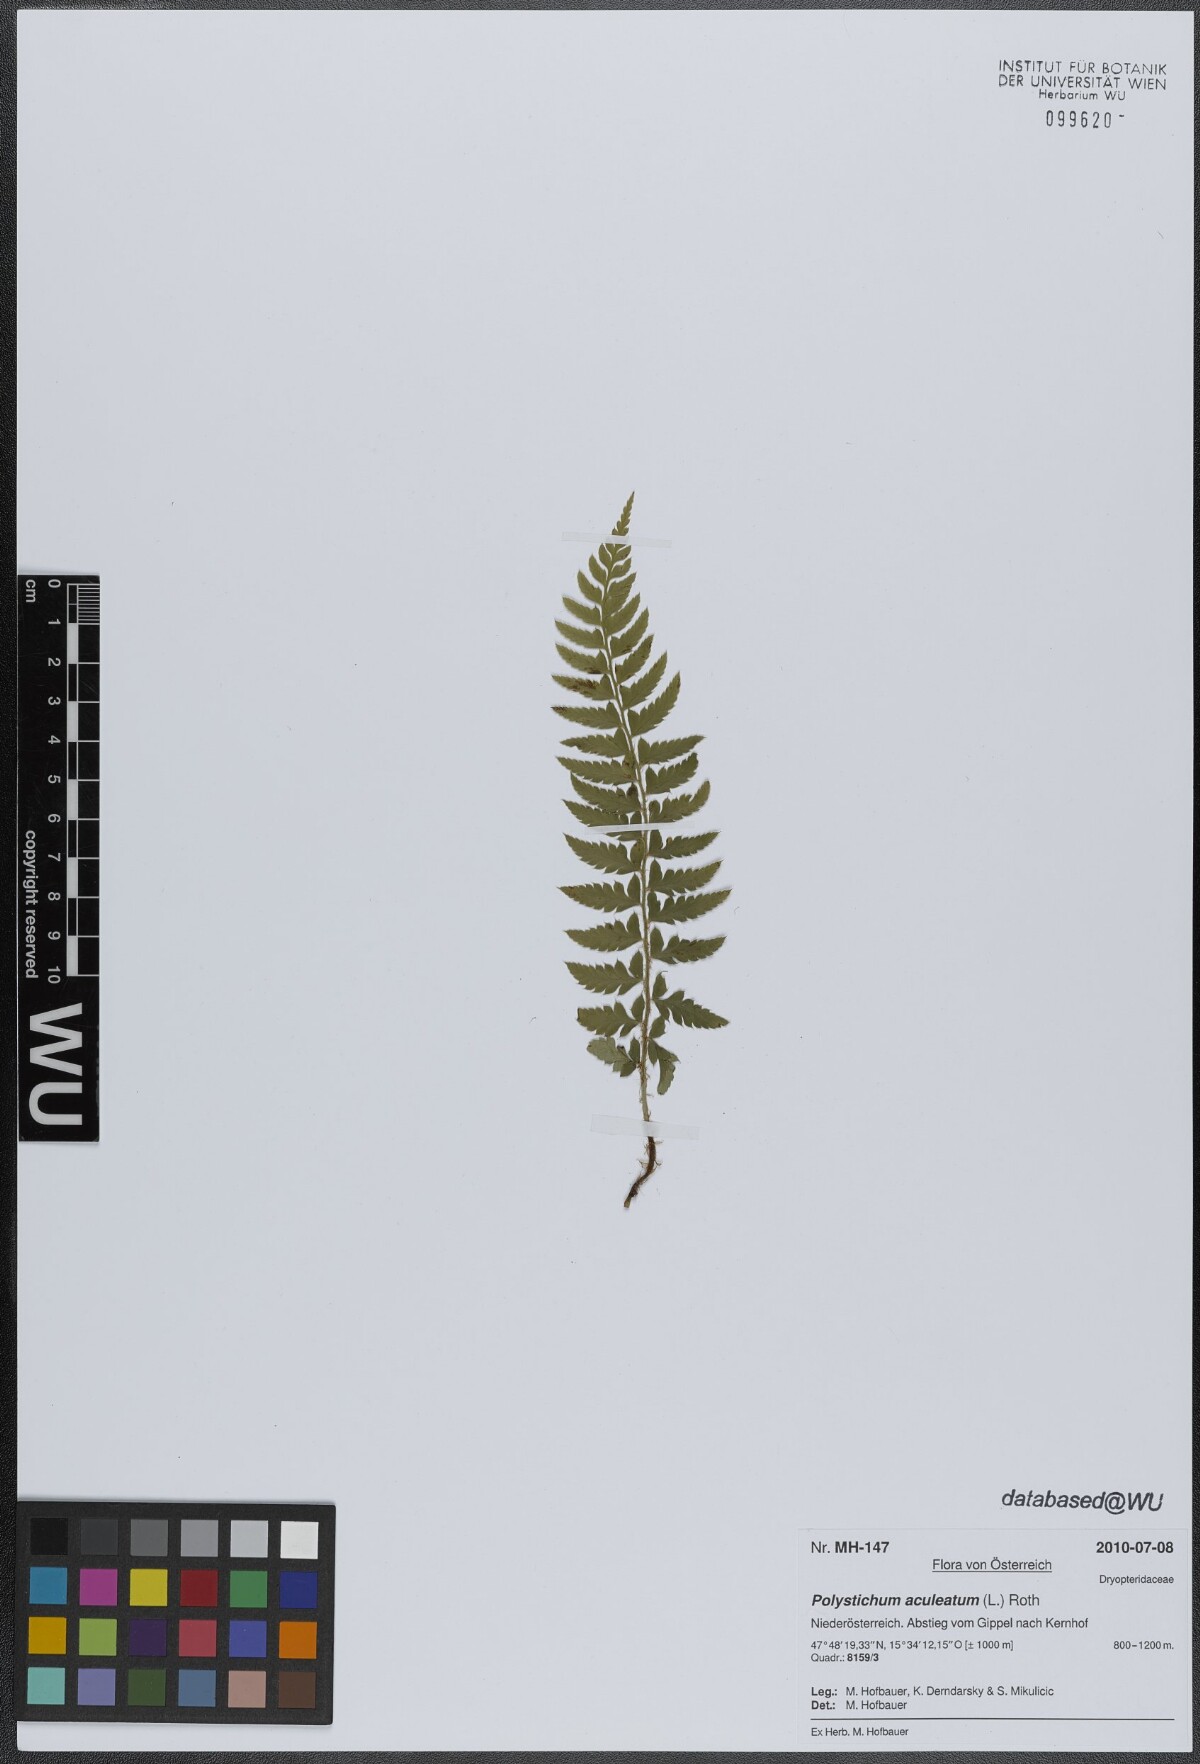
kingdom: Plantae
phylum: Tracheophyta
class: Polypodiopsida
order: Polypodiales
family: Dryopteridaceae
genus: Polystichum
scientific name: Polystichum aculeatum
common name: Hard shield-fern
